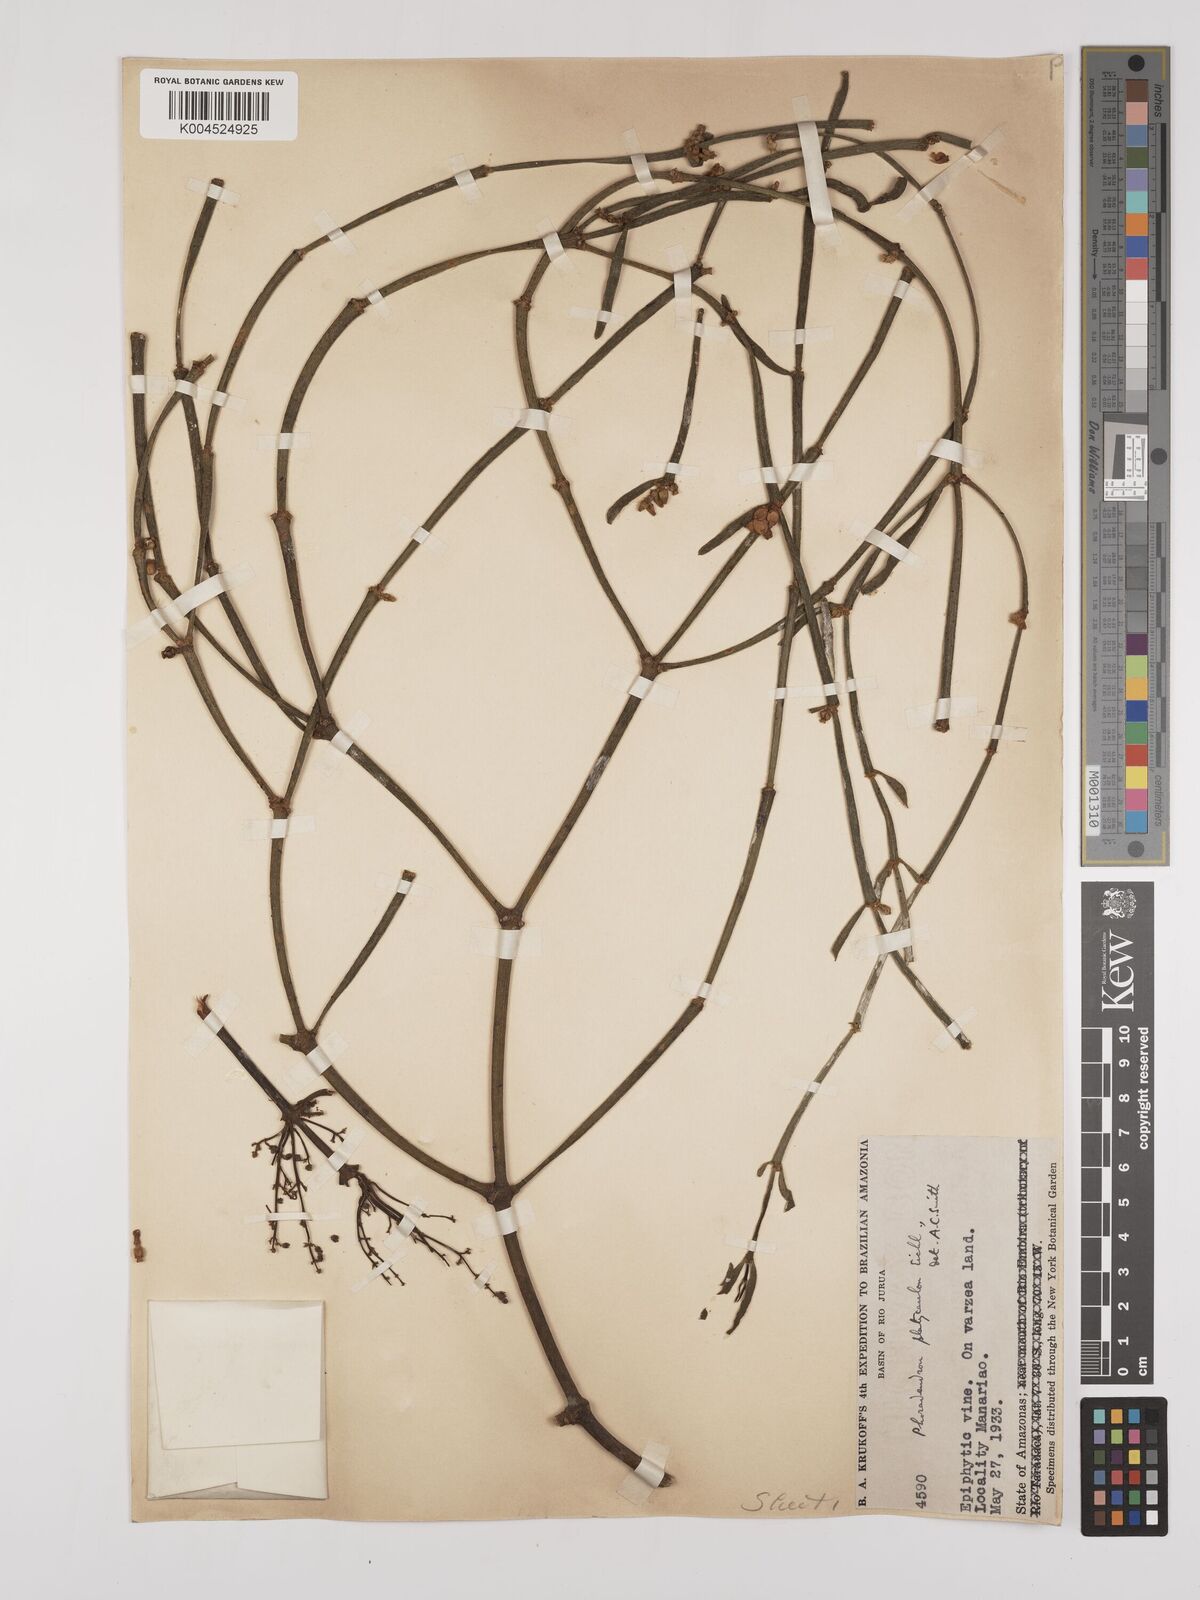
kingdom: Plantae
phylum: Tracheophyta
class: Magnoliopsida
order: Santalales
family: Viscaceae
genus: Phoradendron
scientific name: Phoradendron planiphyllum
